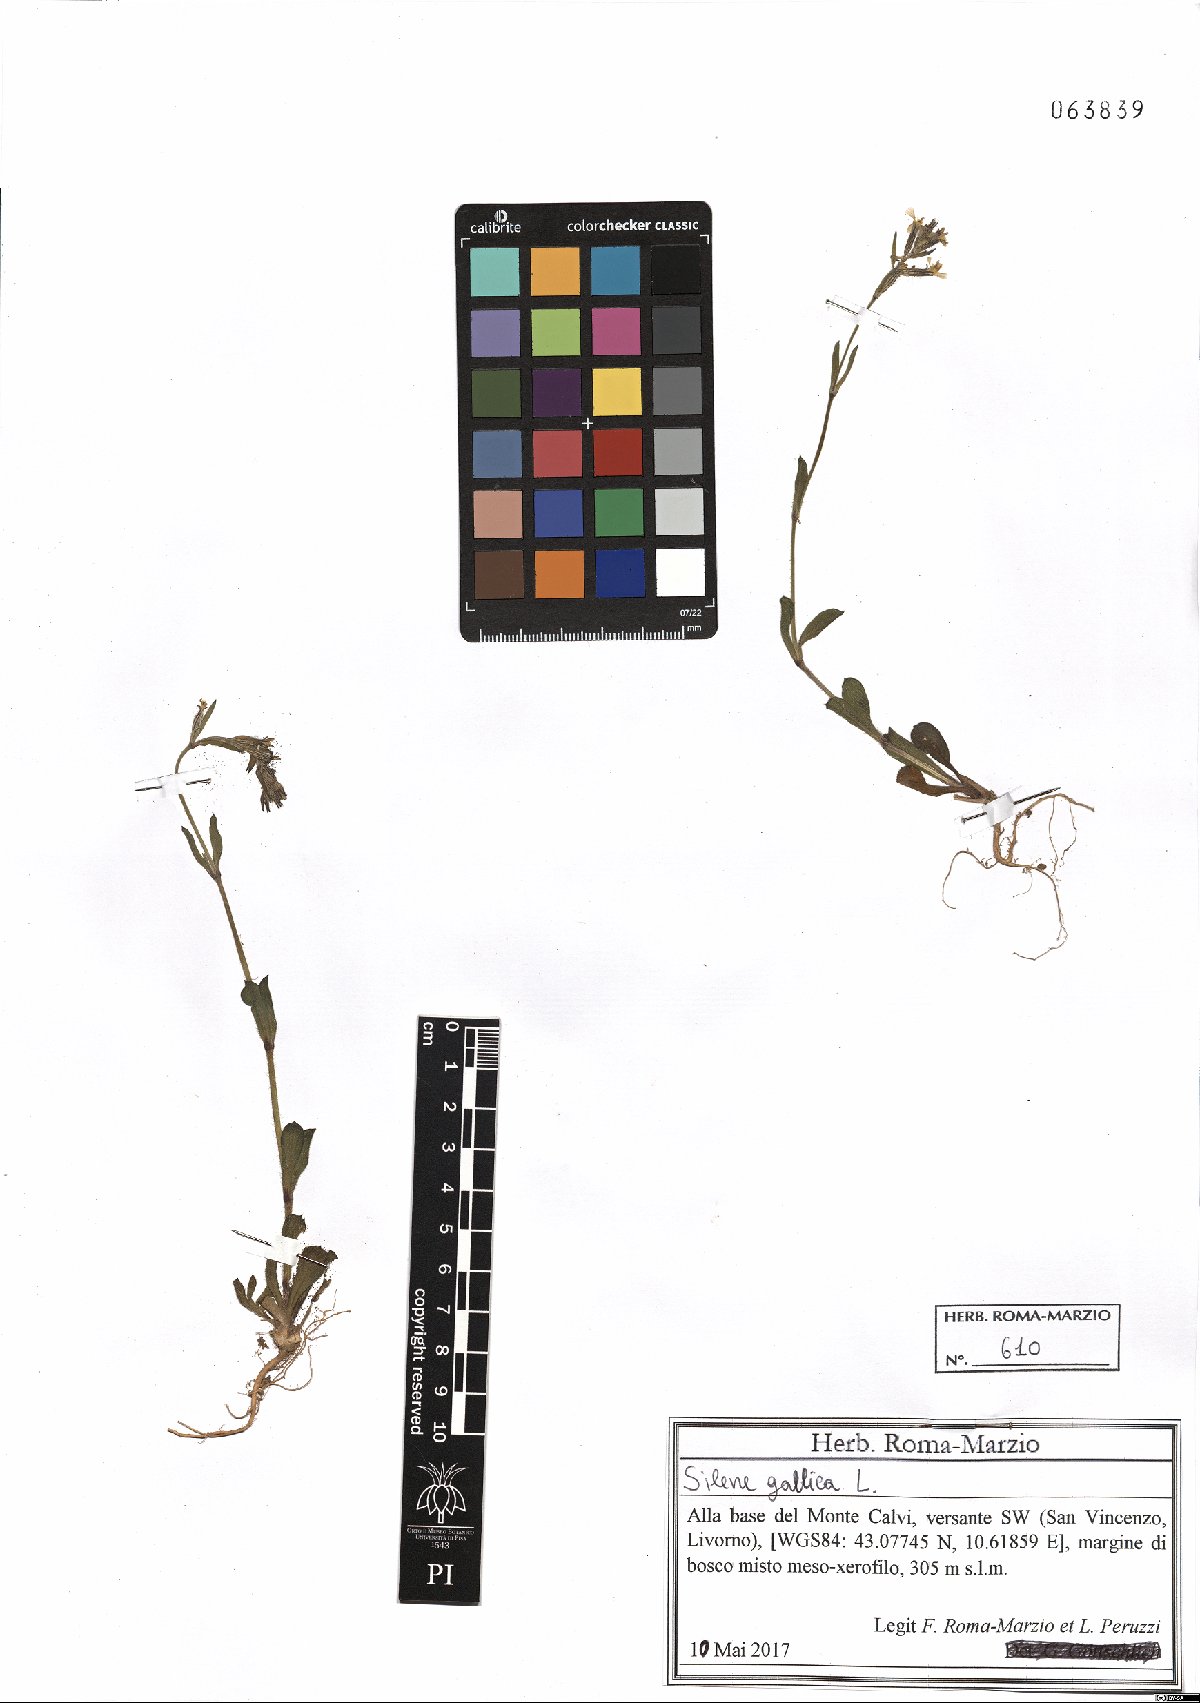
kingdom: Plantae
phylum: Tracheophyta
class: Magnoliopsida
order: Caryophyllales
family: Caryophyllaceae
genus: Silene
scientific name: Silene gallica
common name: Small-flowered catchfly
